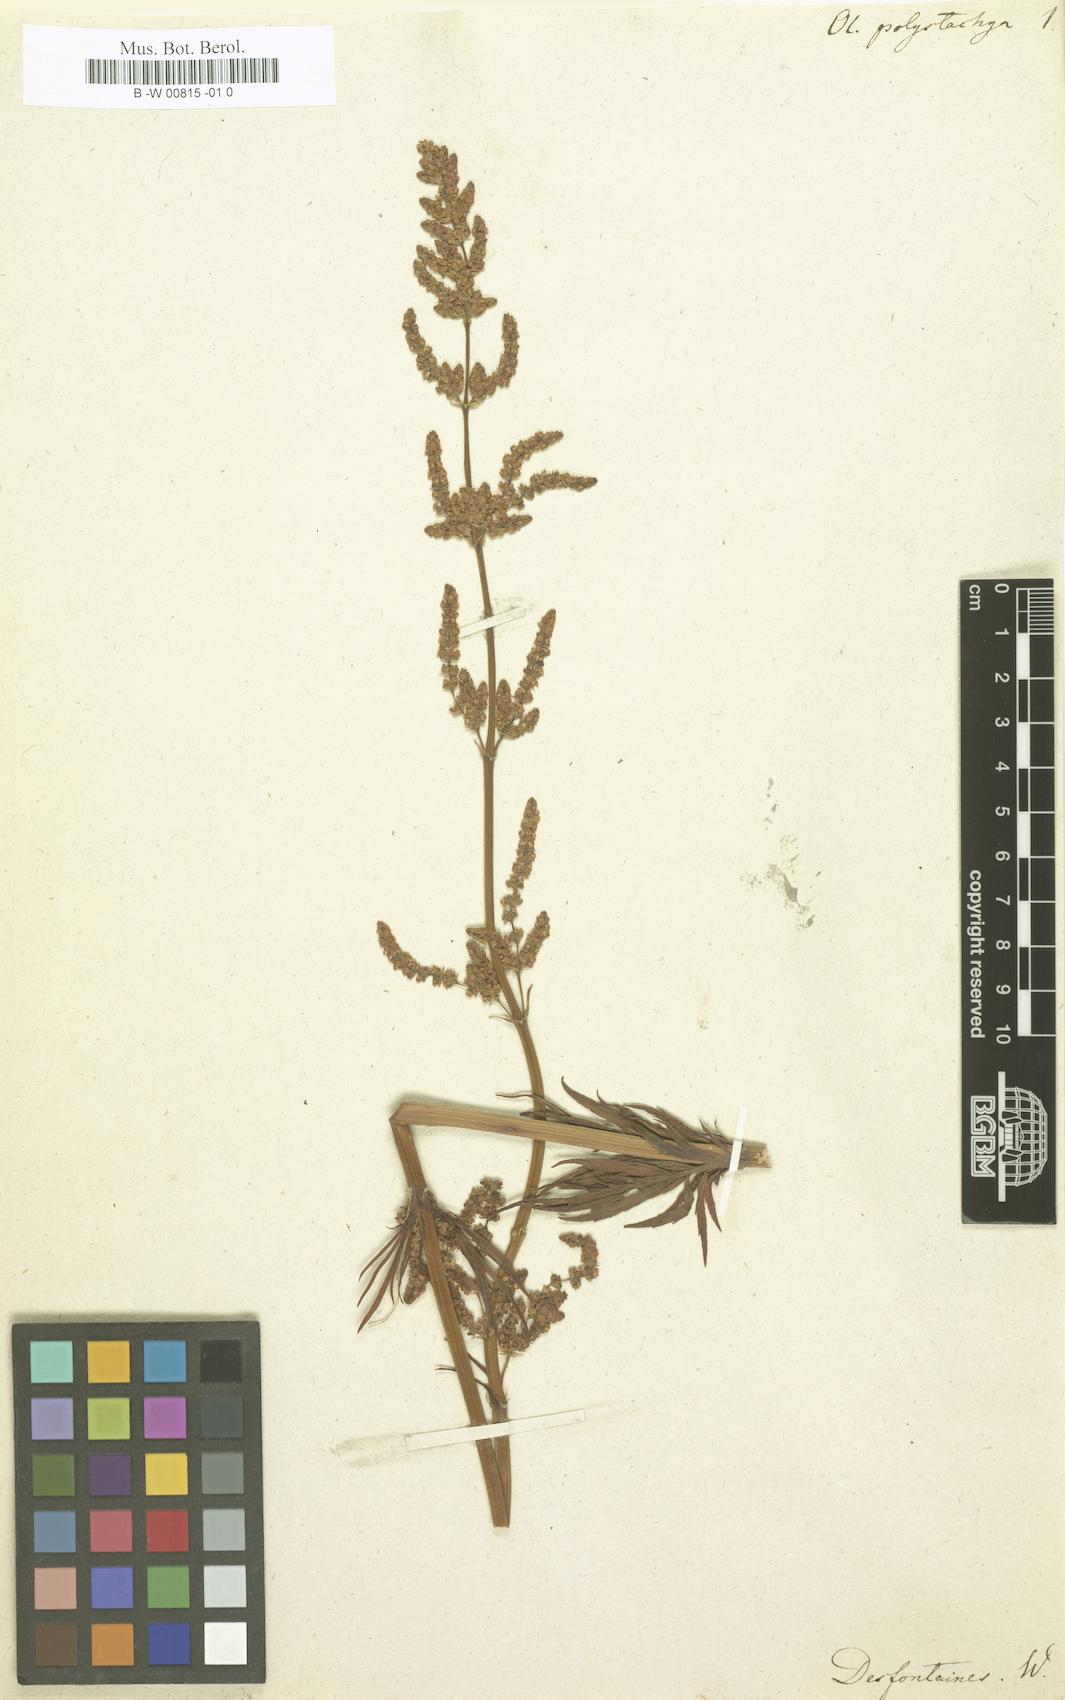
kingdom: Plantae
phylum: Tracheophyta
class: Magnoliopsida
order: Dipsacales
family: Caprifoliaceae
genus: Valeriana
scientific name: Valeriana polystachya
